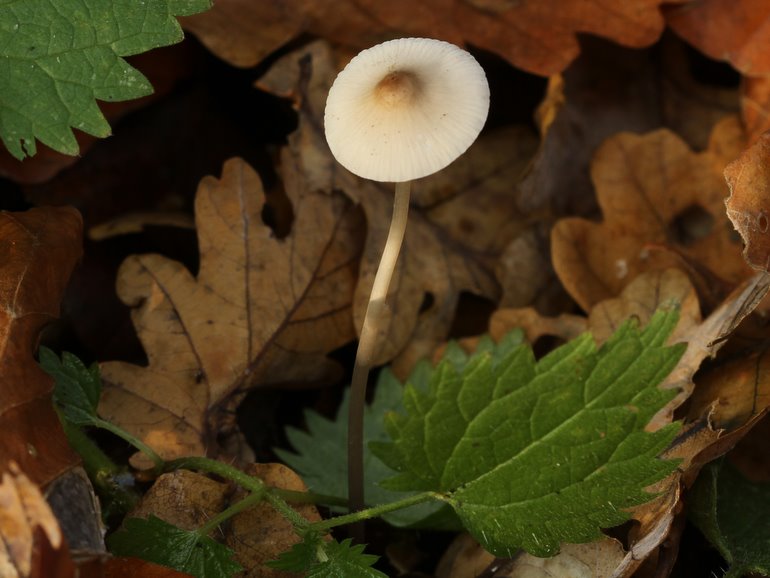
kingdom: Fungi
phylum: Basidiomycota
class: Agaricomycetes
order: Agaricales
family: Mycenaceae
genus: Mycena
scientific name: Mycena vitilis
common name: blankstokket huesvamp
